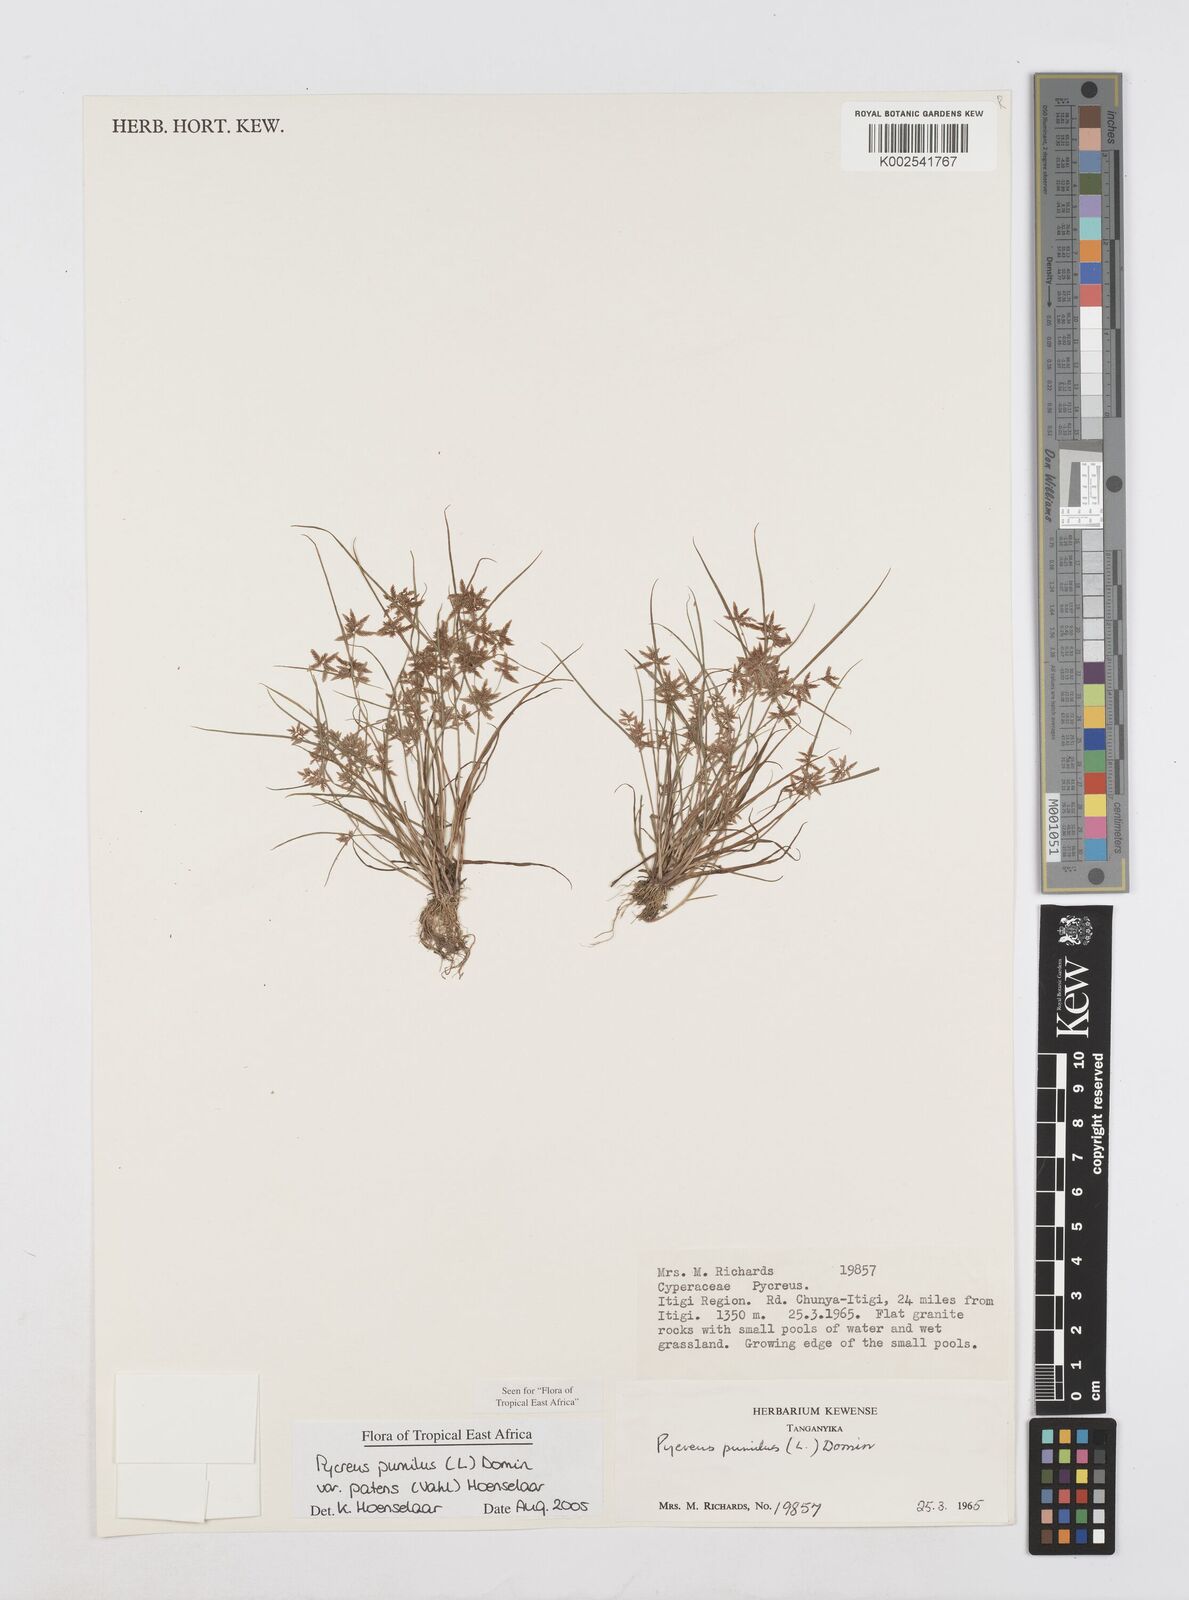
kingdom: Plantae
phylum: Tracheophyta
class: Liliopsida
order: Poales
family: Cyperaceae
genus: Cyperus
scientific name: Cyperus pumilus
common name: Low flatsedge
